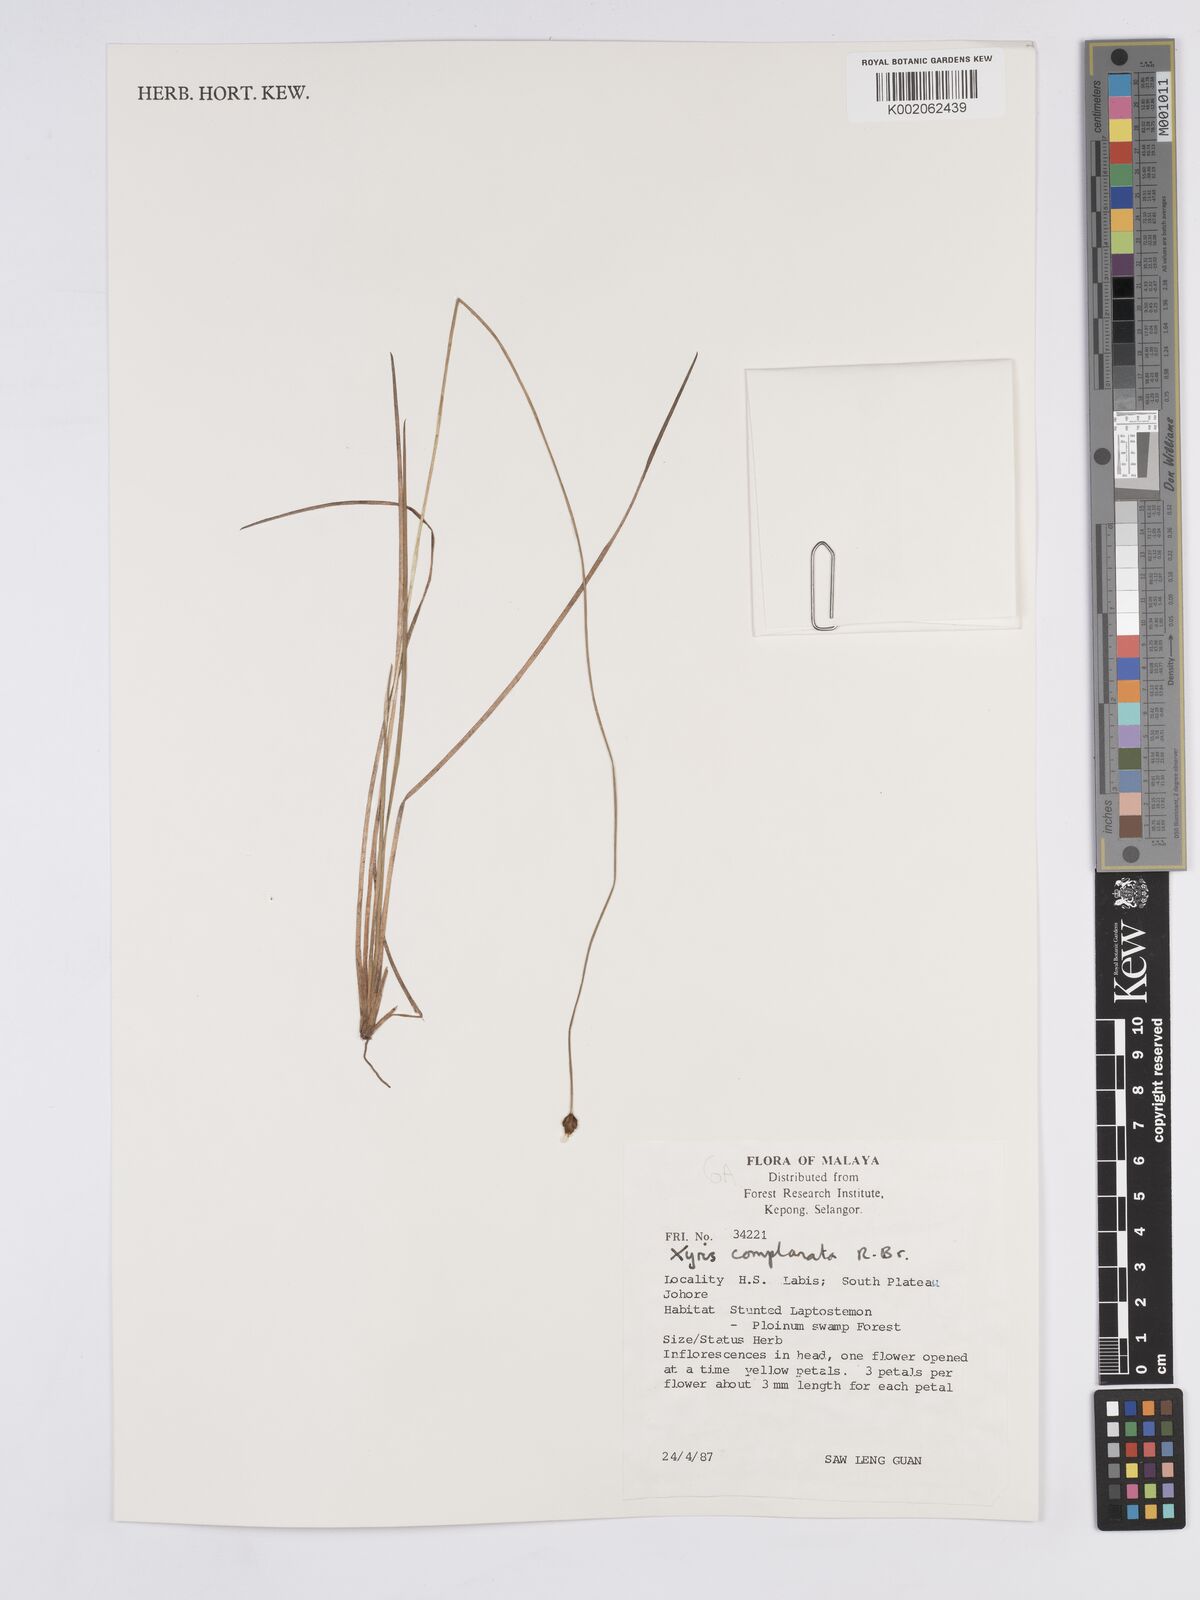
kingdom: Plantae
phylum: Tracheophyta
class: Liliopsida
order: Poales
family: Xyridaceae
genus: Xyris
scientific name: Xyris complanata
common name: Hawai'i yelloweyed grass
